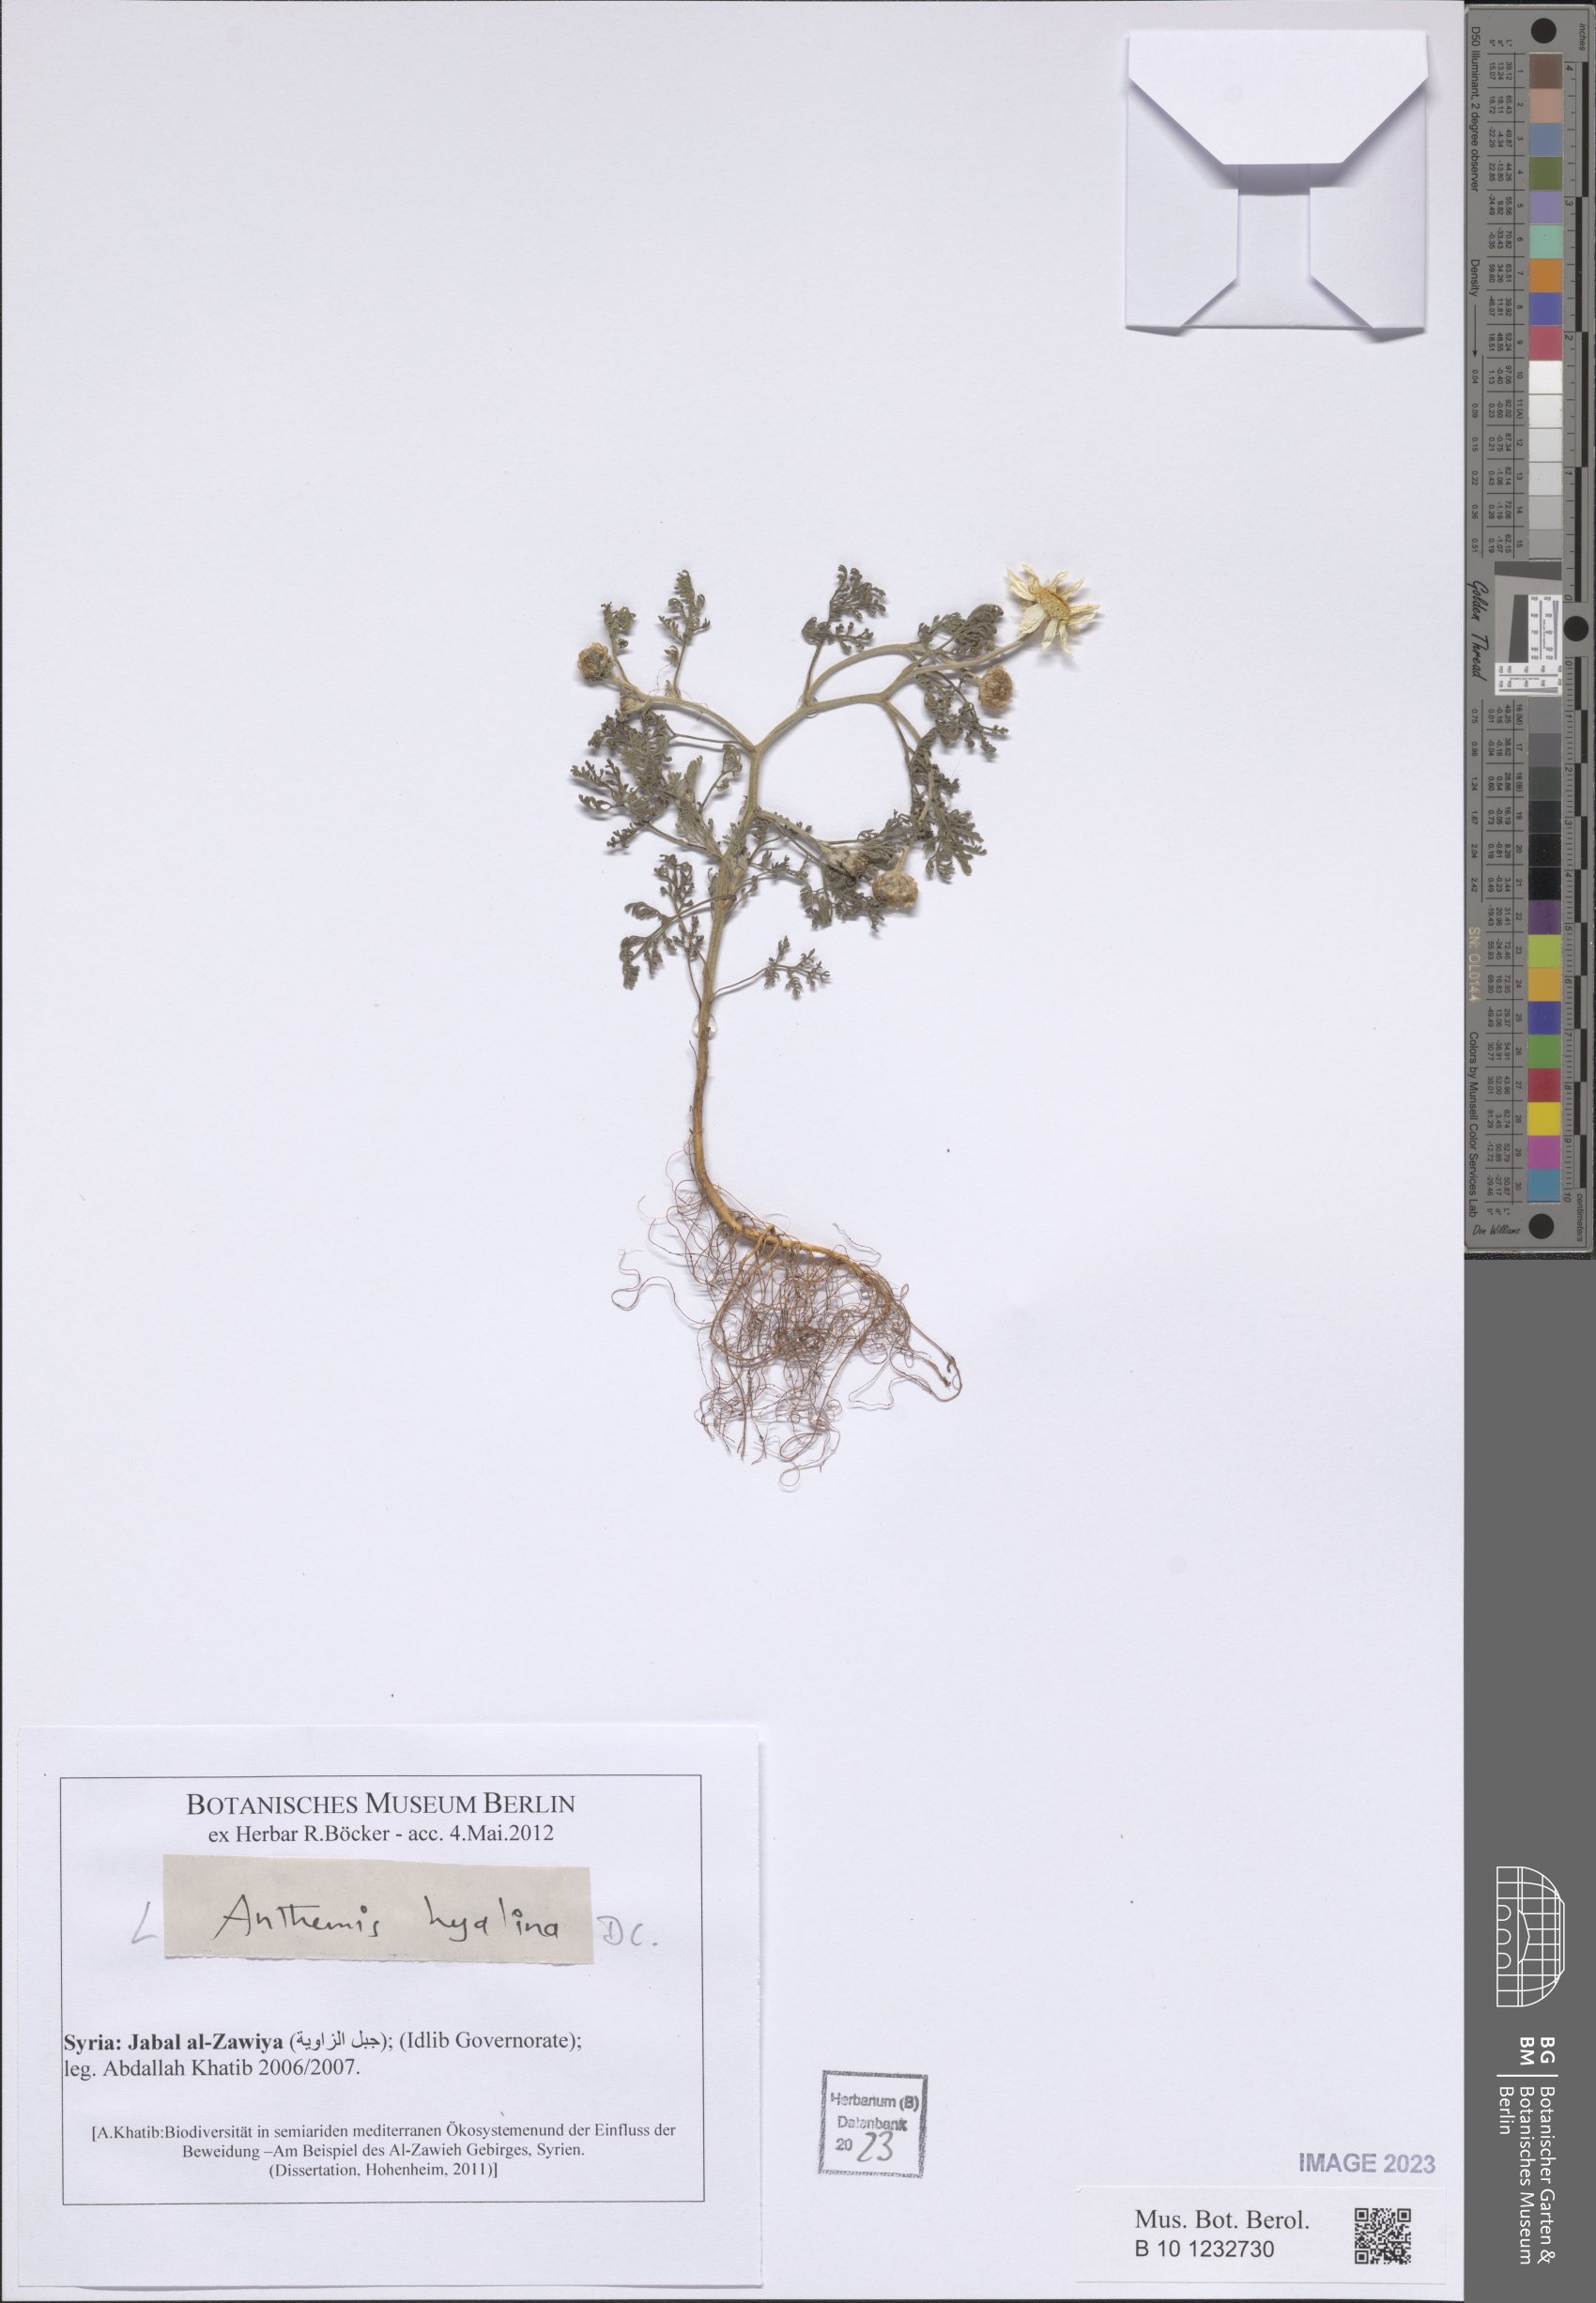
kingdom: Plantae
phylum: Tracheophyta
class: Magnoliopsida
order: Asterales
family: Asteraceae
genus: Anthemis
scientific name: Anthemis hyalina
